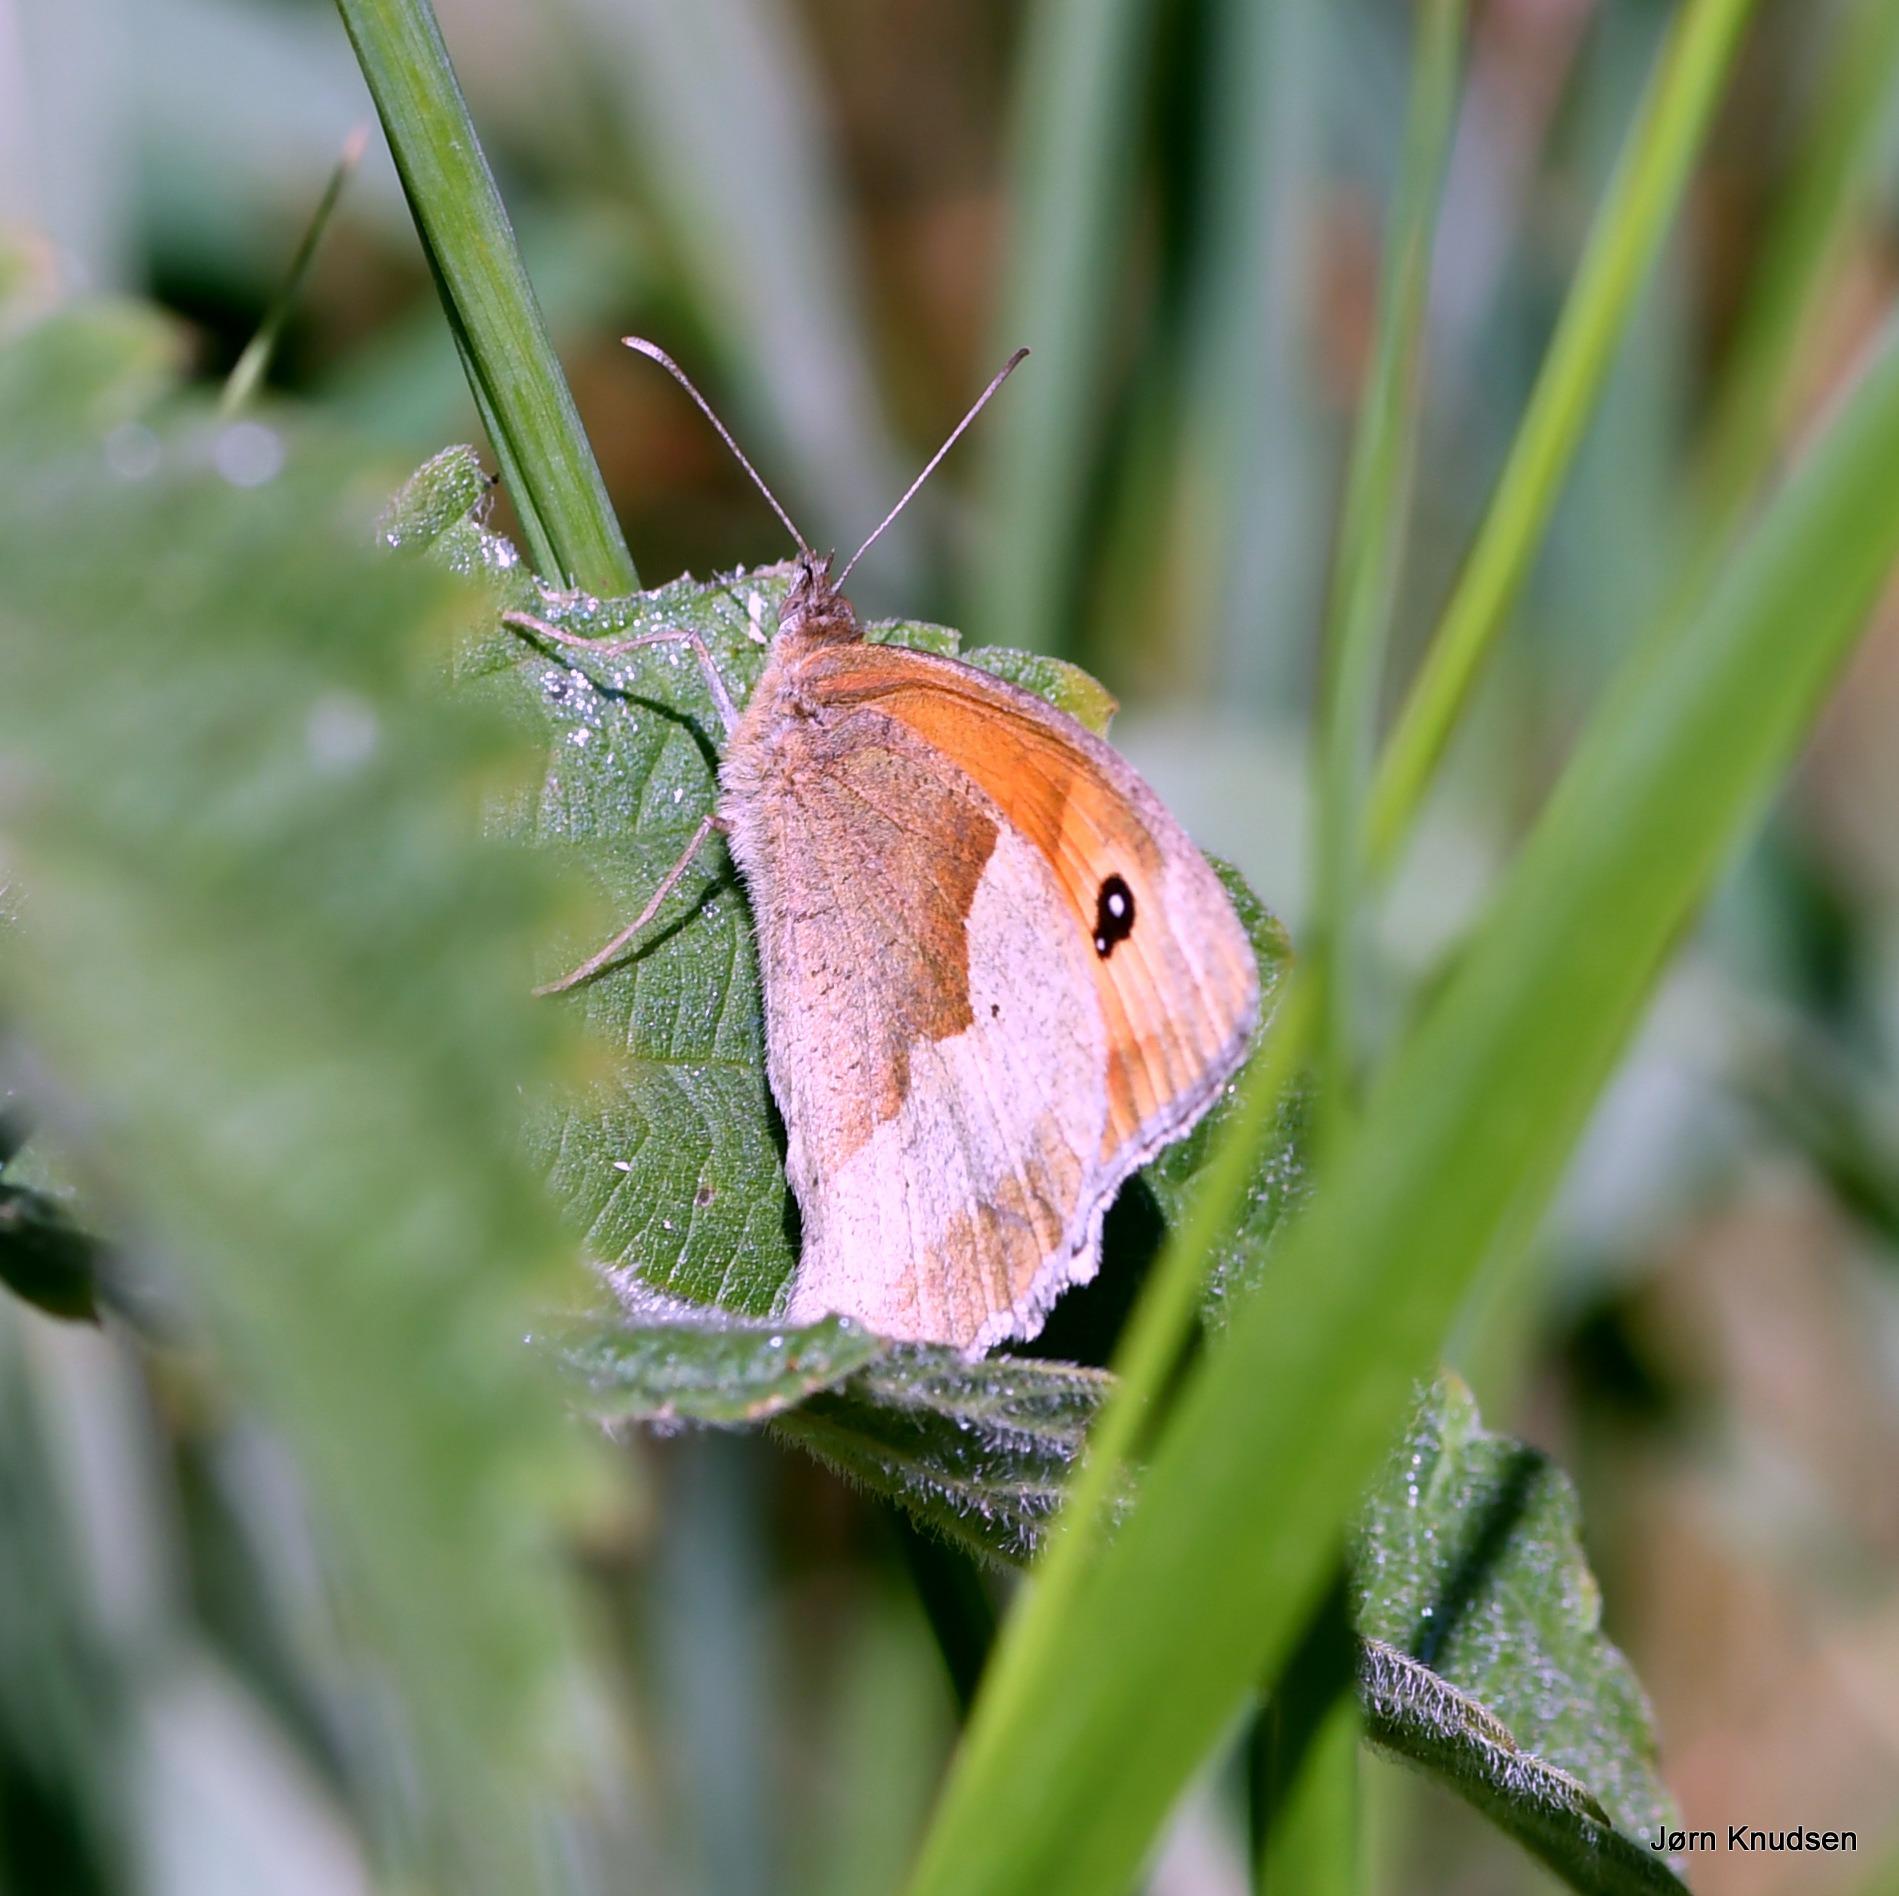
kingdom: Animalia
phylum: Arthropoda
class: Insecta
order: Lepidoptera
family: Nymphalidae
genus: Maniola
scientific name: Maniola jurtina
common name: Græsrandøje
